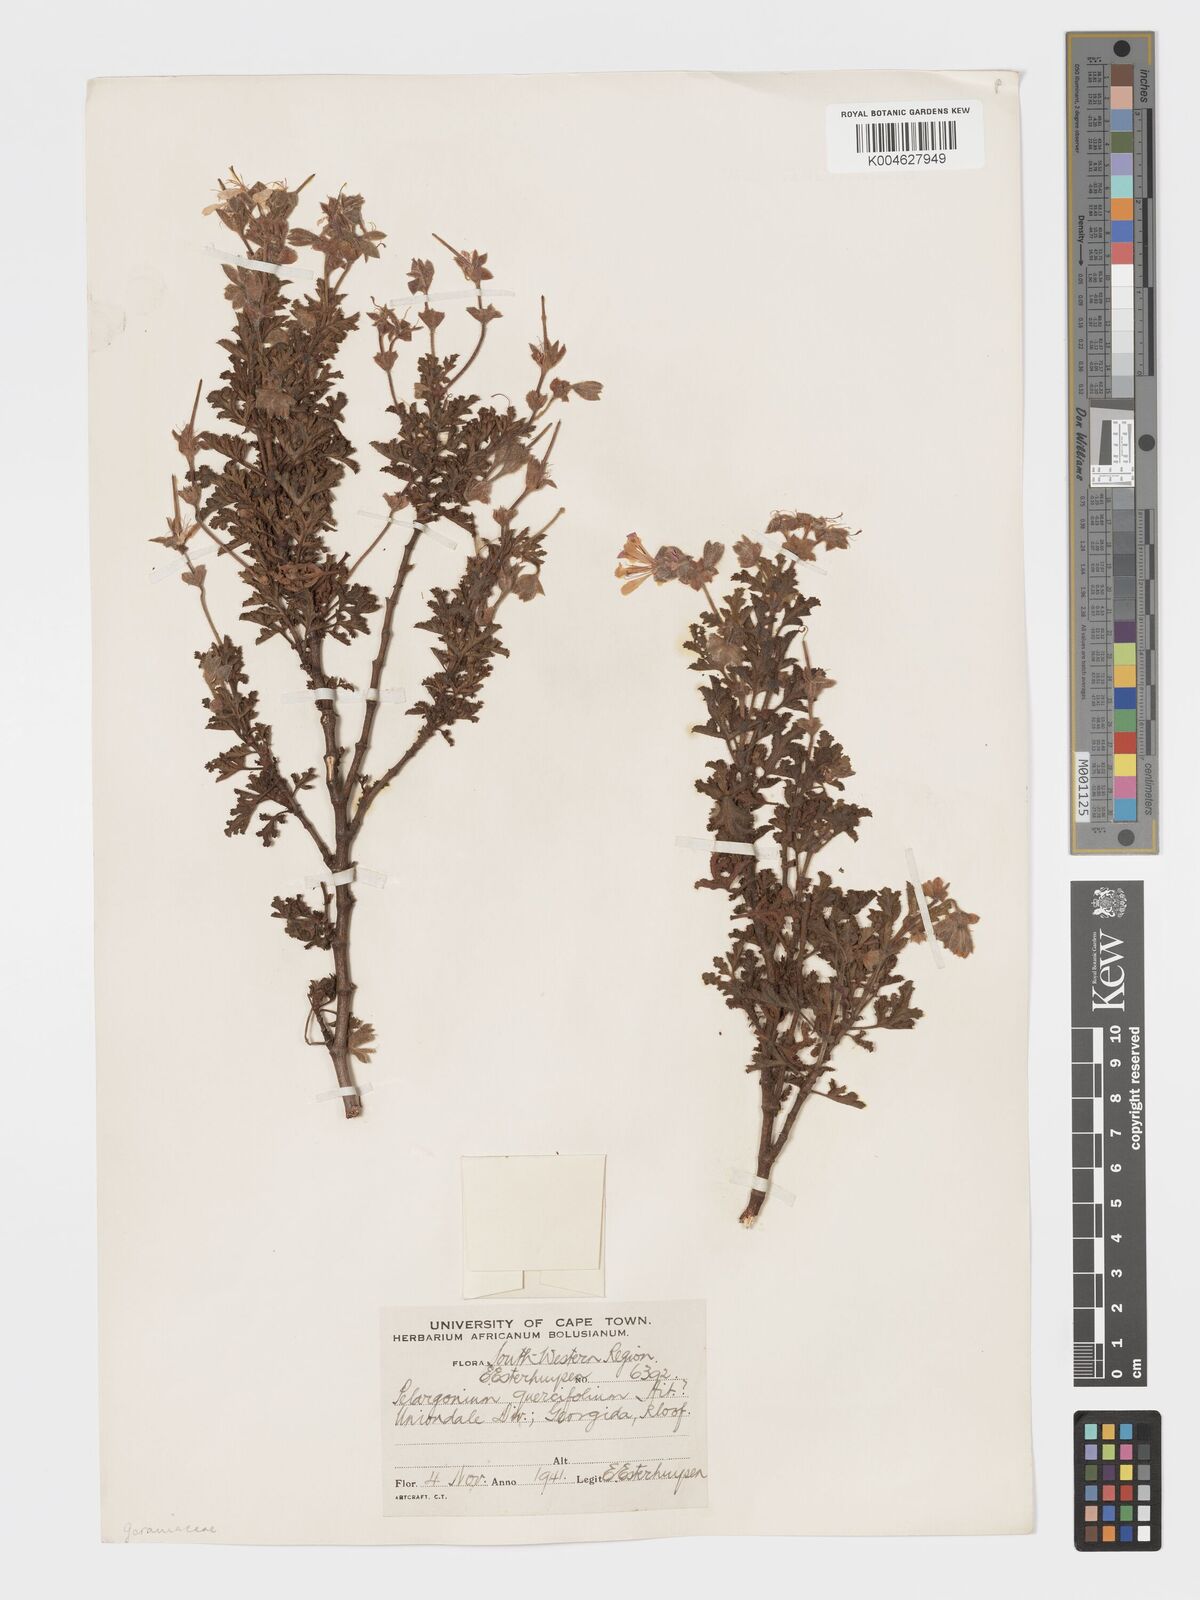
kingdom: Plantae
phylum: Tracheophyta
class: Magnoliopsida
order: Geraniales
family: Geraniaceae
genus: Pelargonium
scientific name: Pelargonium quercifolium
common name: Oakleaf geranium
